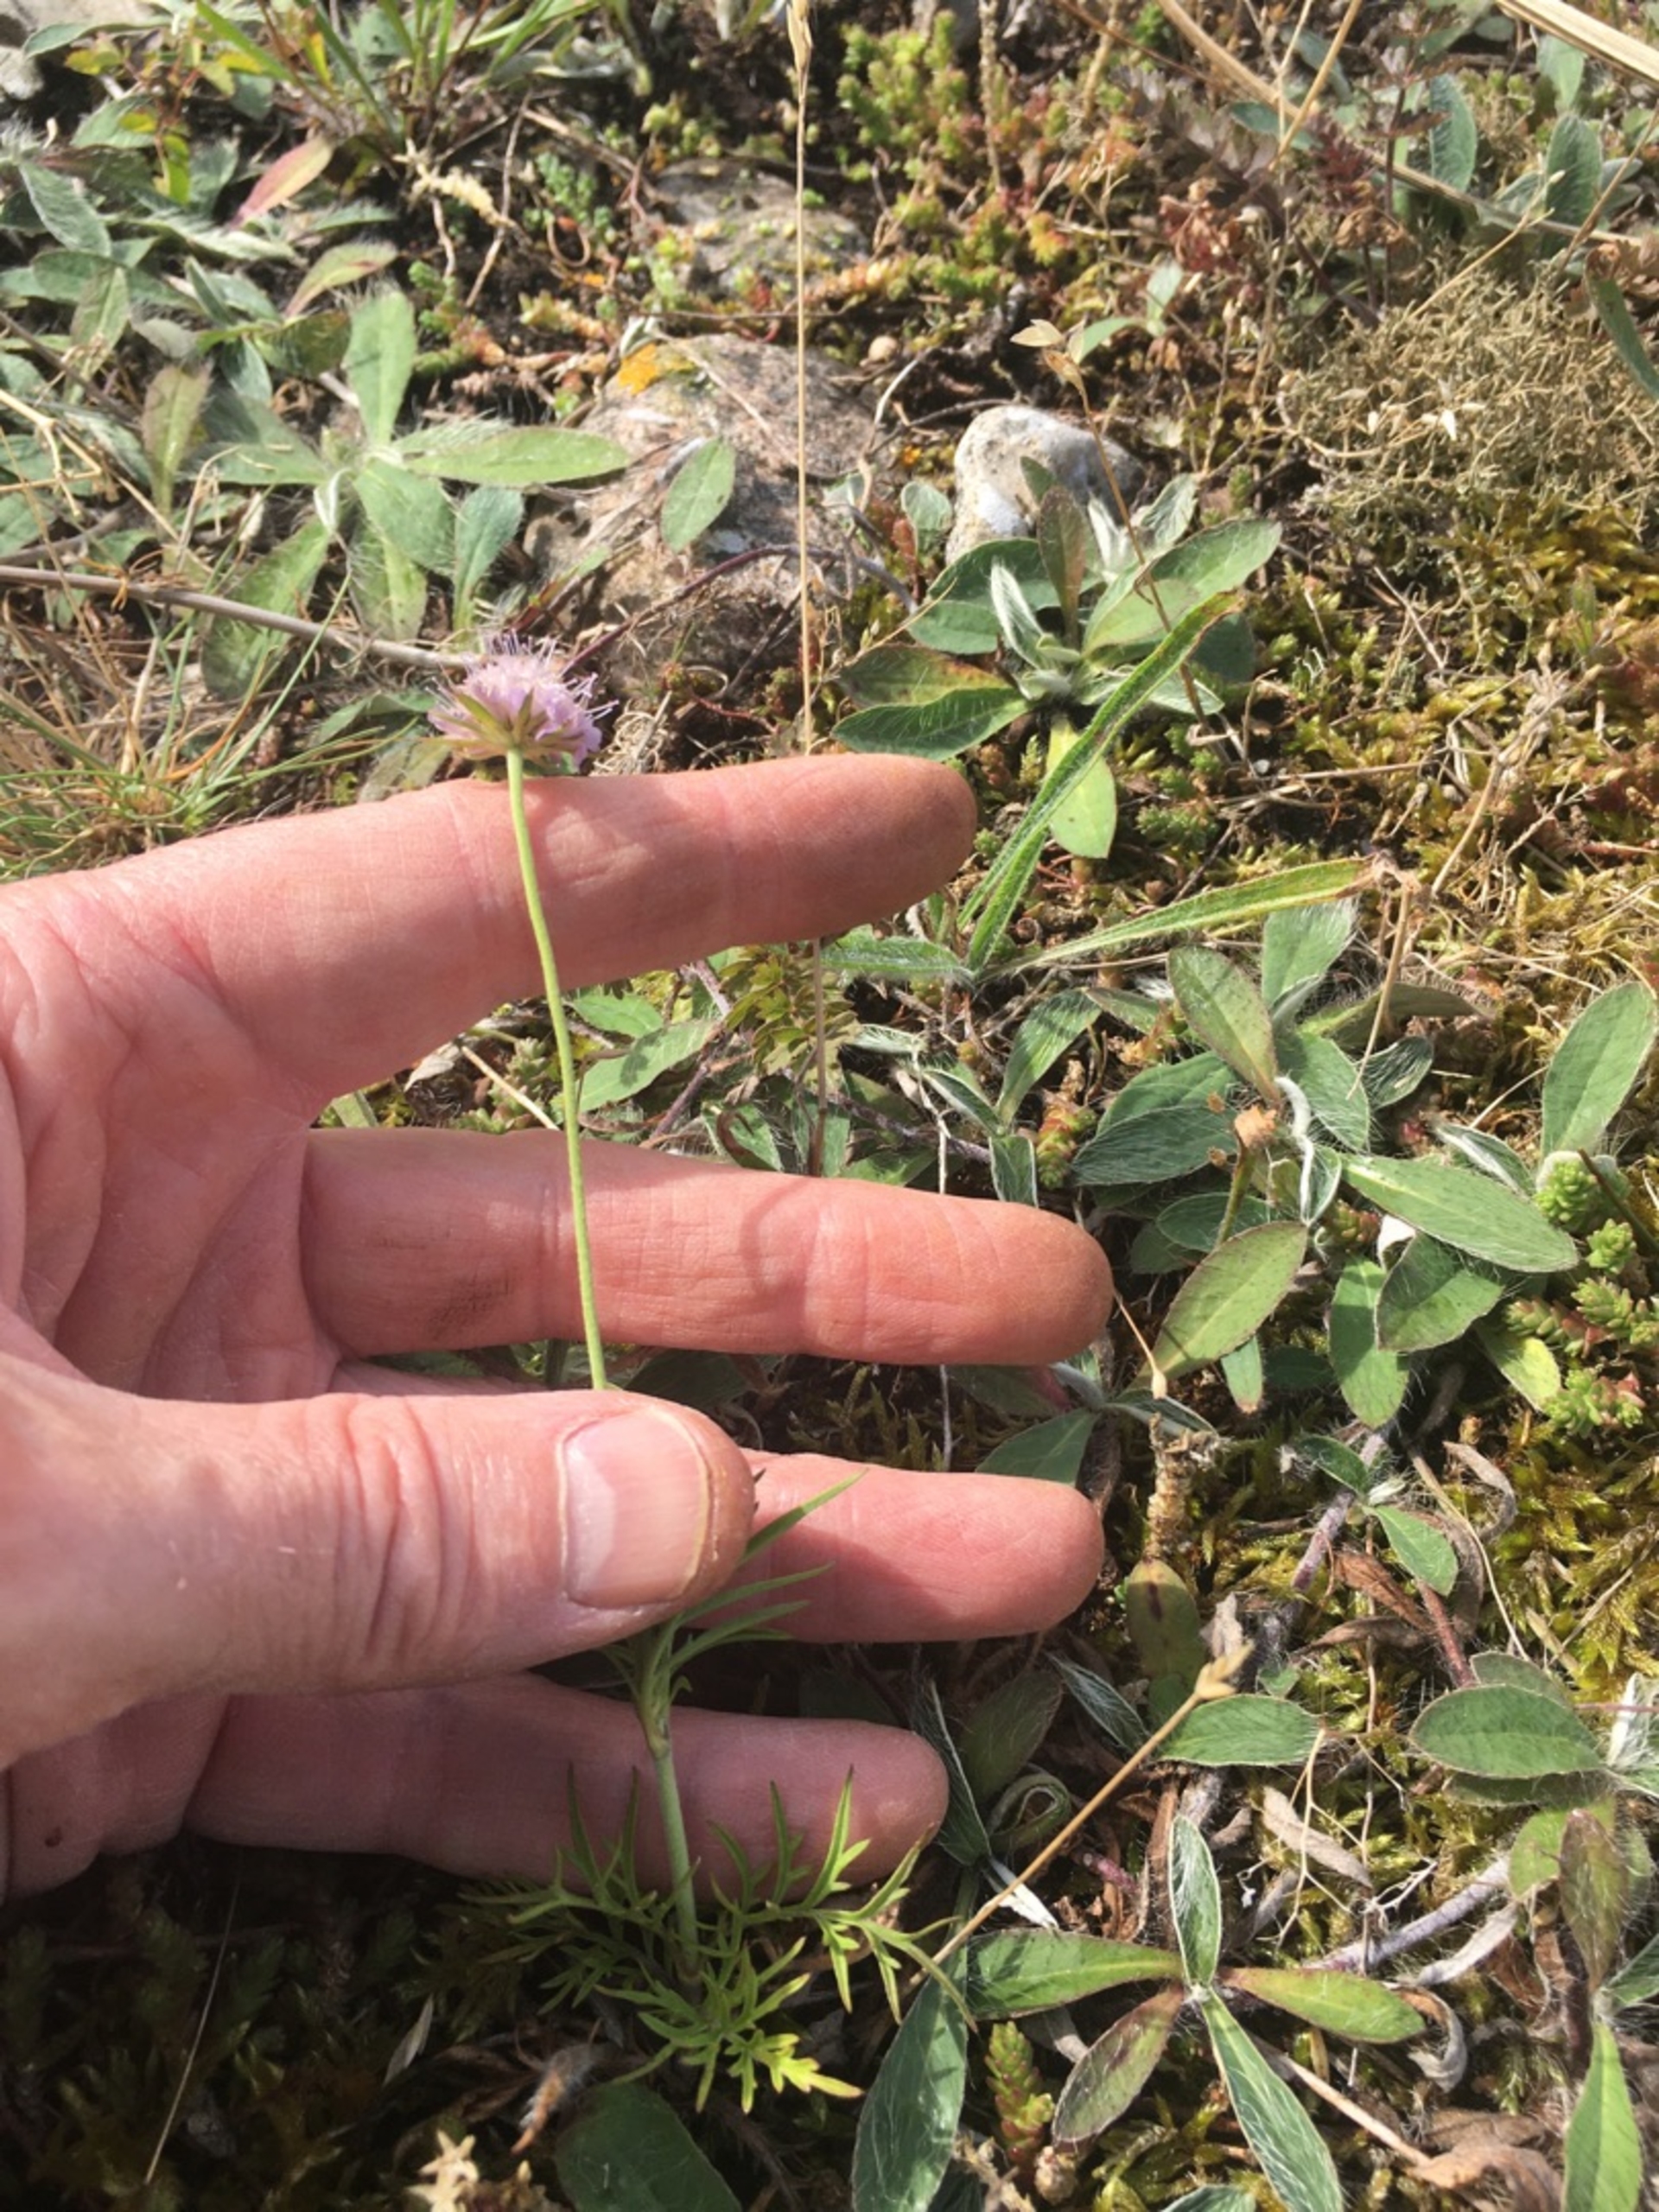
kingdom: Plantae
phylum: Tracheophyta
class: Magnoliopsida
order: Dipsacales
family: Caprifoliaceae
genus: Scabiosa
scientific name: Scabiosa columbaria
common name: Due-skabiose
